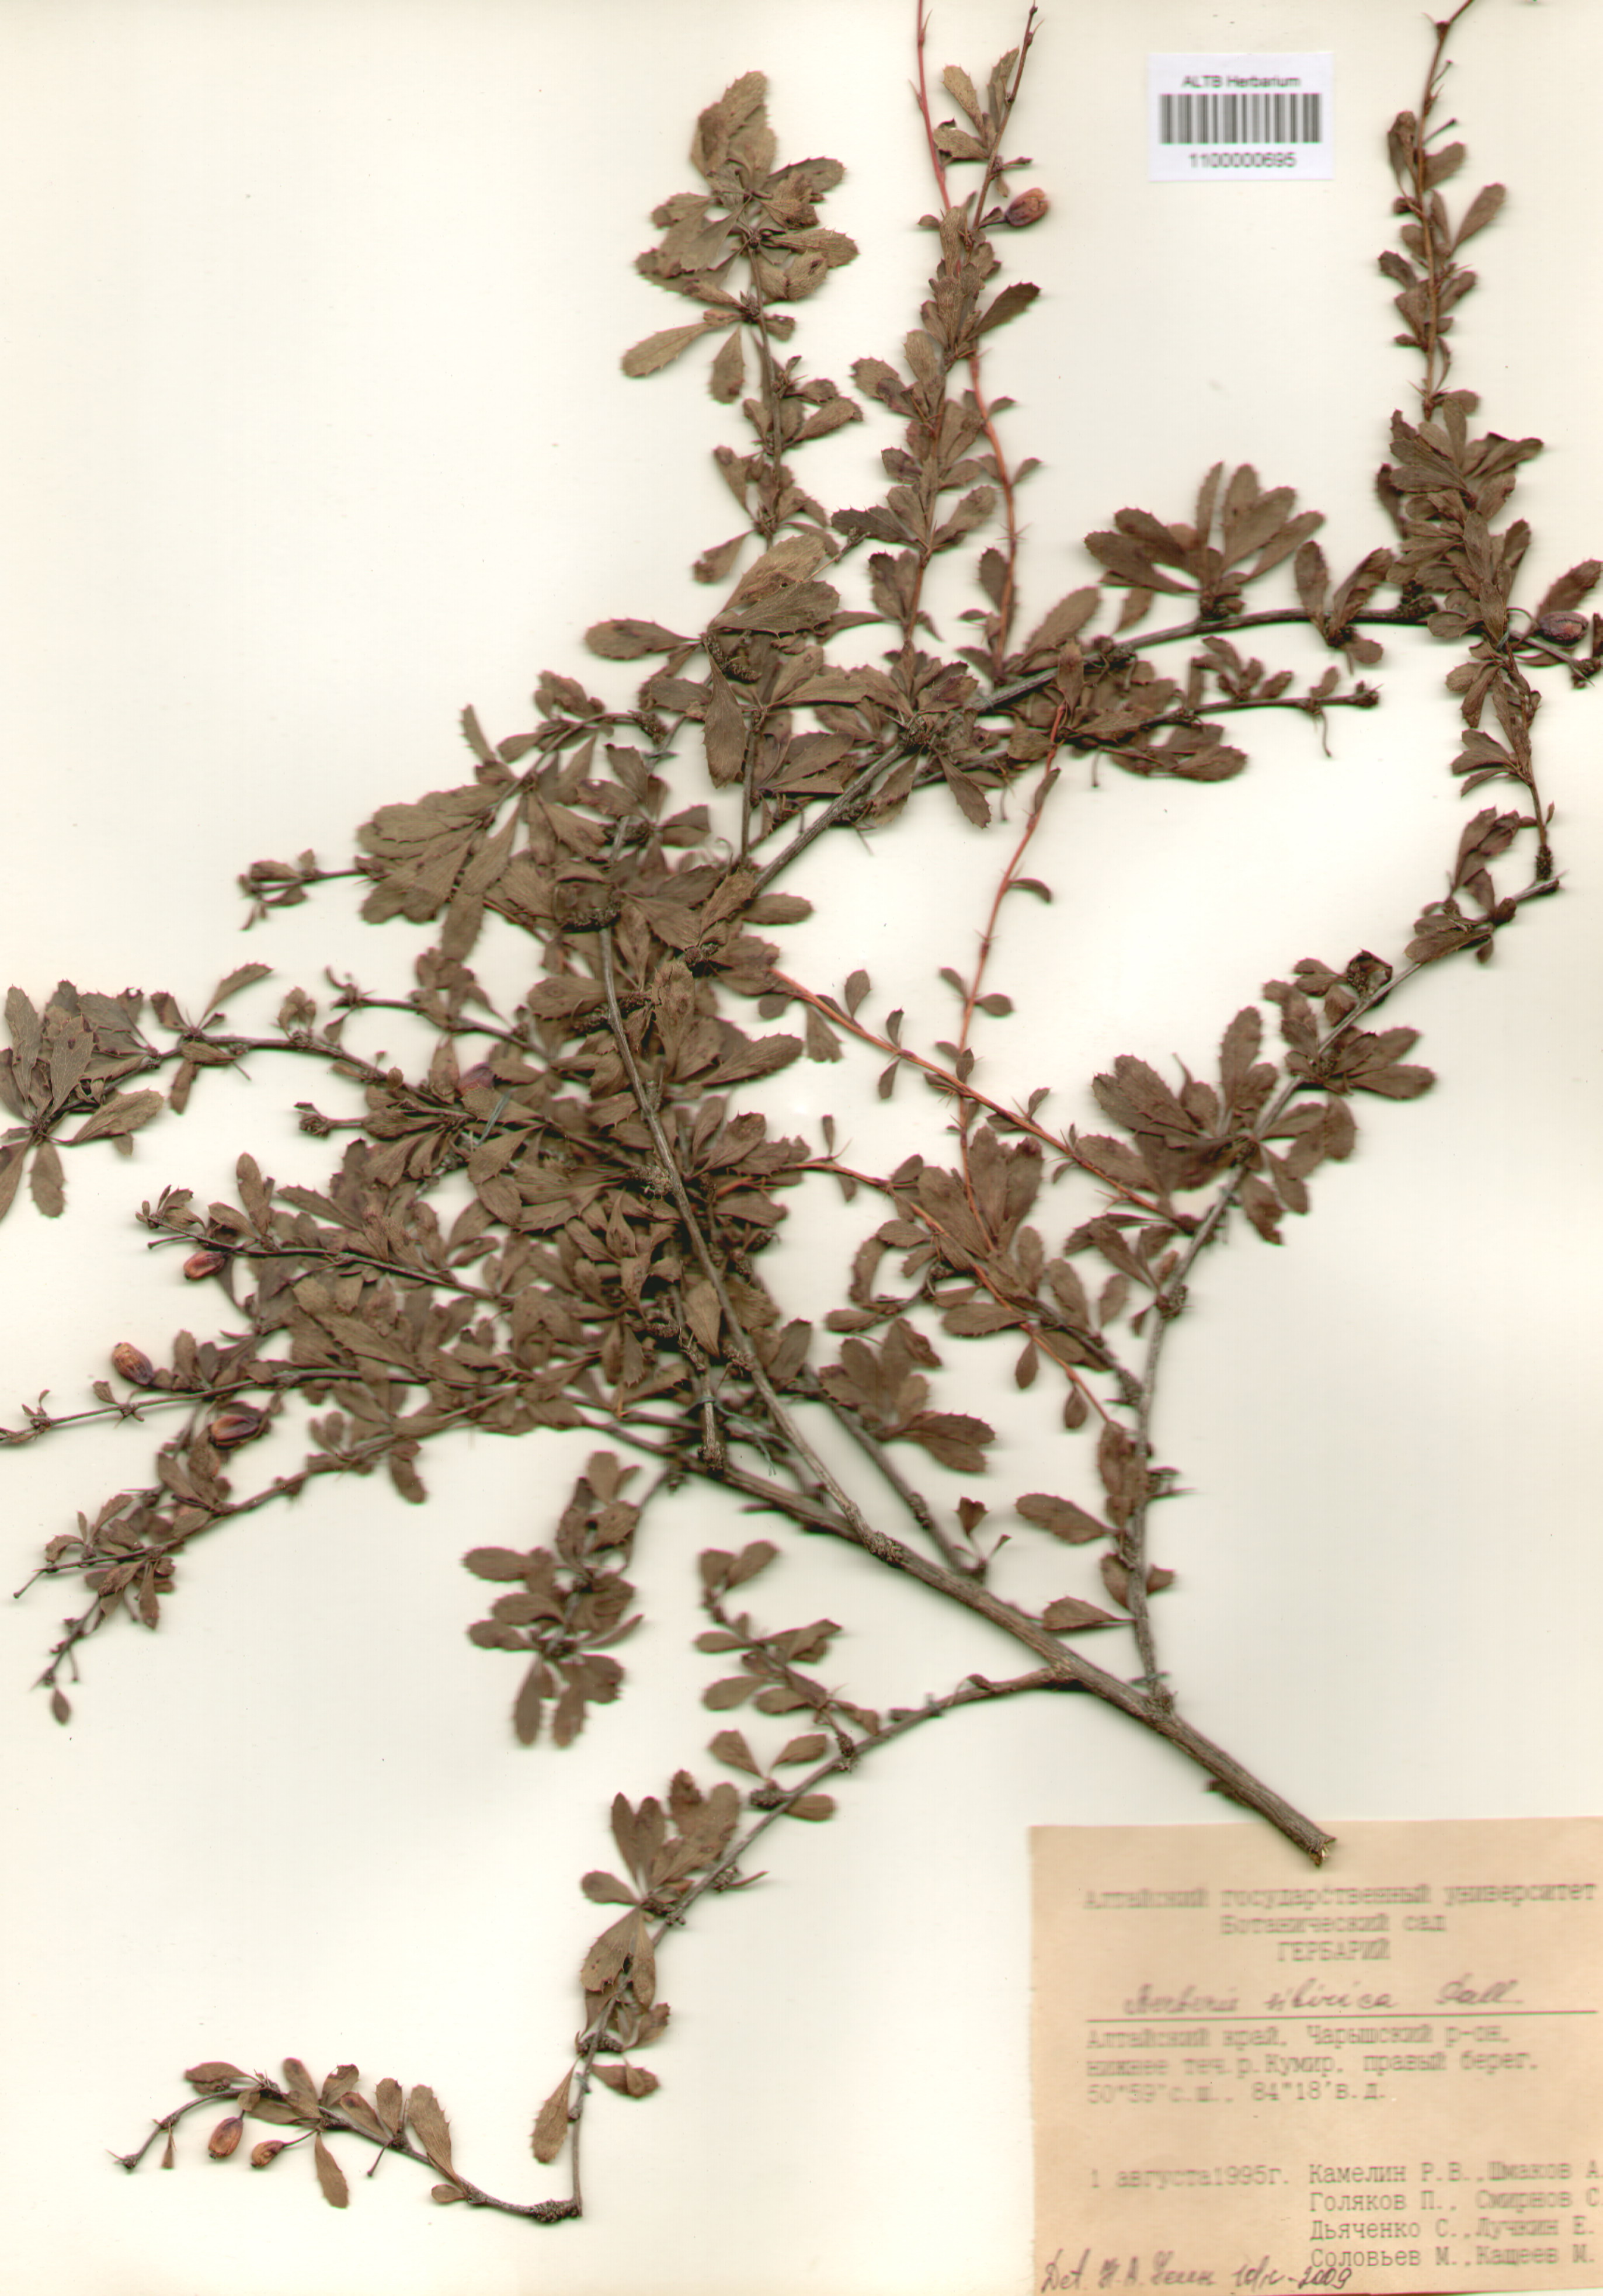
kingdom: Plantae
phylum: Tracheophyta
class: Magnoliopsida
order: Ranunculales
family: Berberidaceae
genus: Berberis
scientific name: Berberis sibirica
